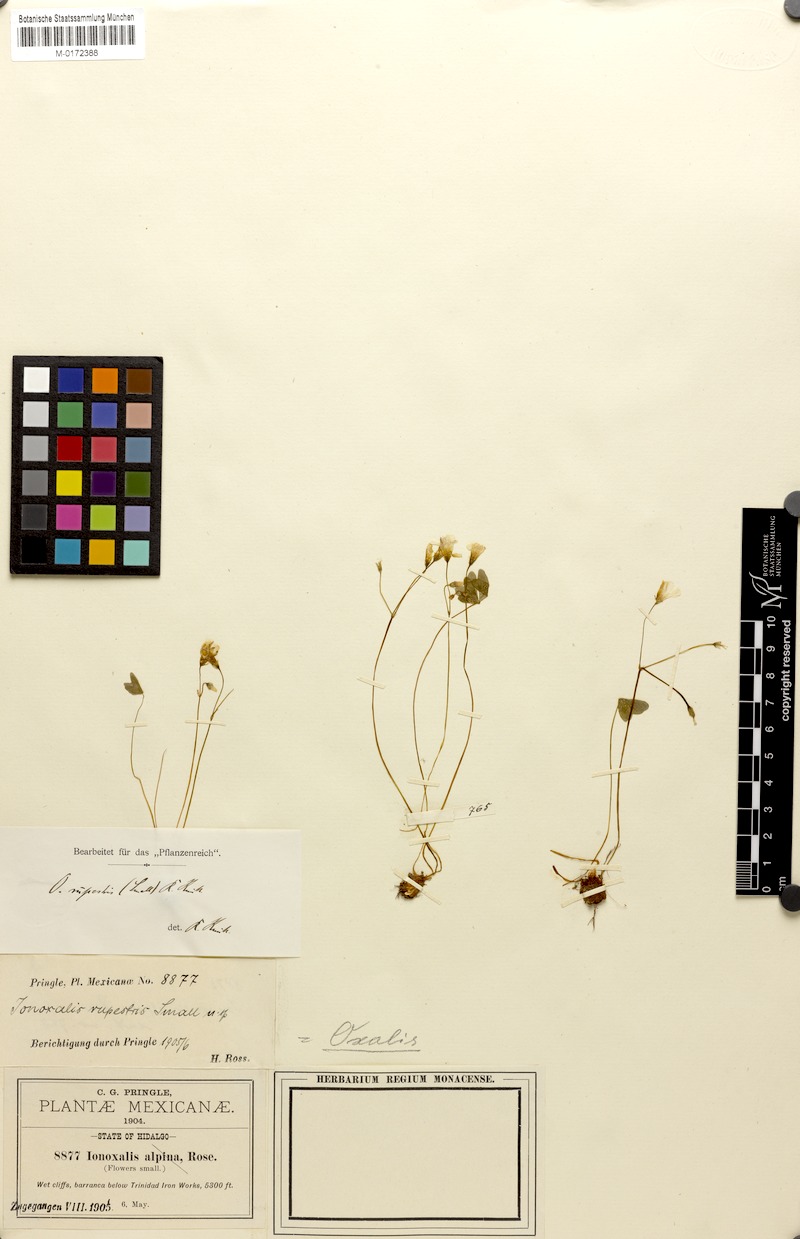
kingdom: Plantae
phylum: Tracheophyta
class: Magnoliopsida
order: Oxalidales
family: Oxalidaceae
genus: Oxalis
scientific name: Oxalis alpina
